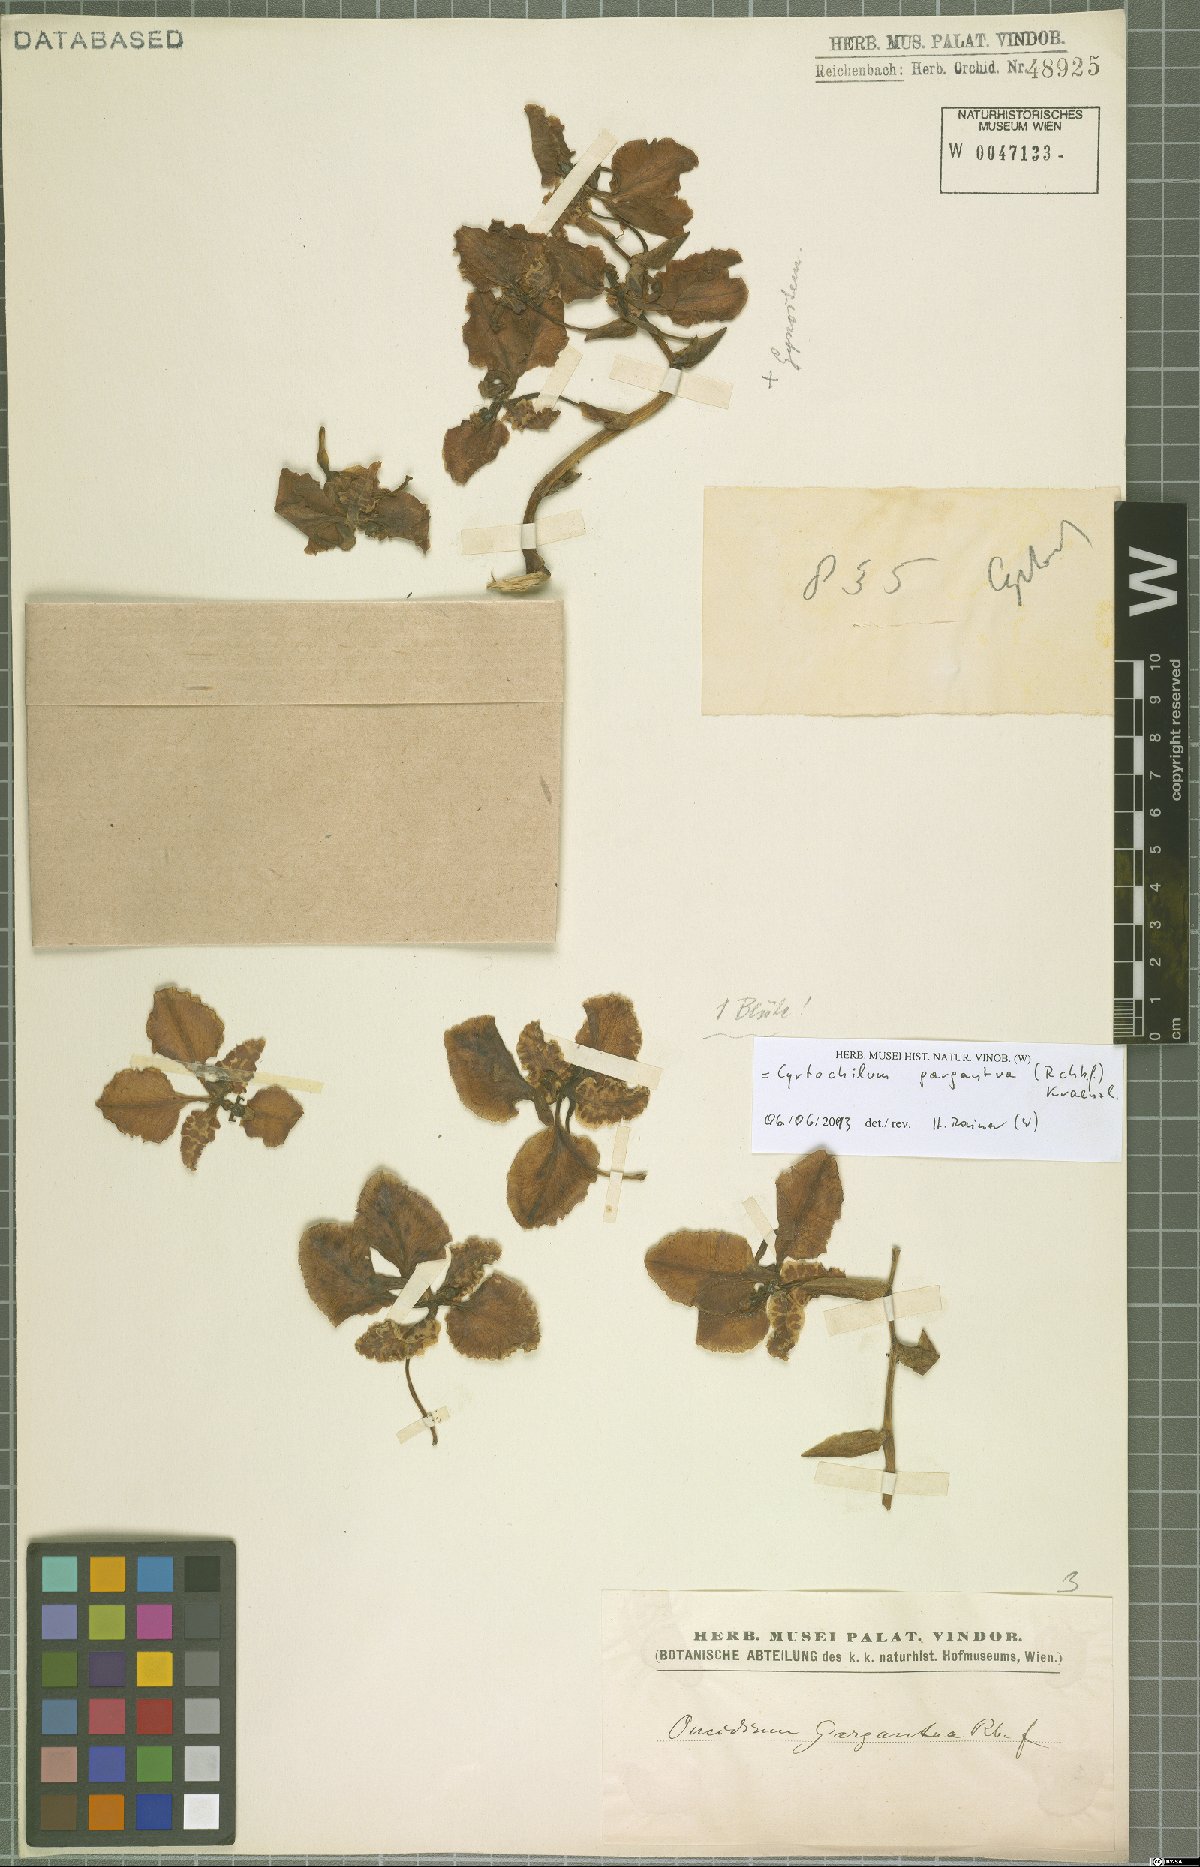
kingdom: Plantae
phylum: Tracheophyta
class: Liliopsida
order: Asparagales
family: Orchidaceae
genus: Cyrtochilum
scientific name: Cyrtochilum gargantua
